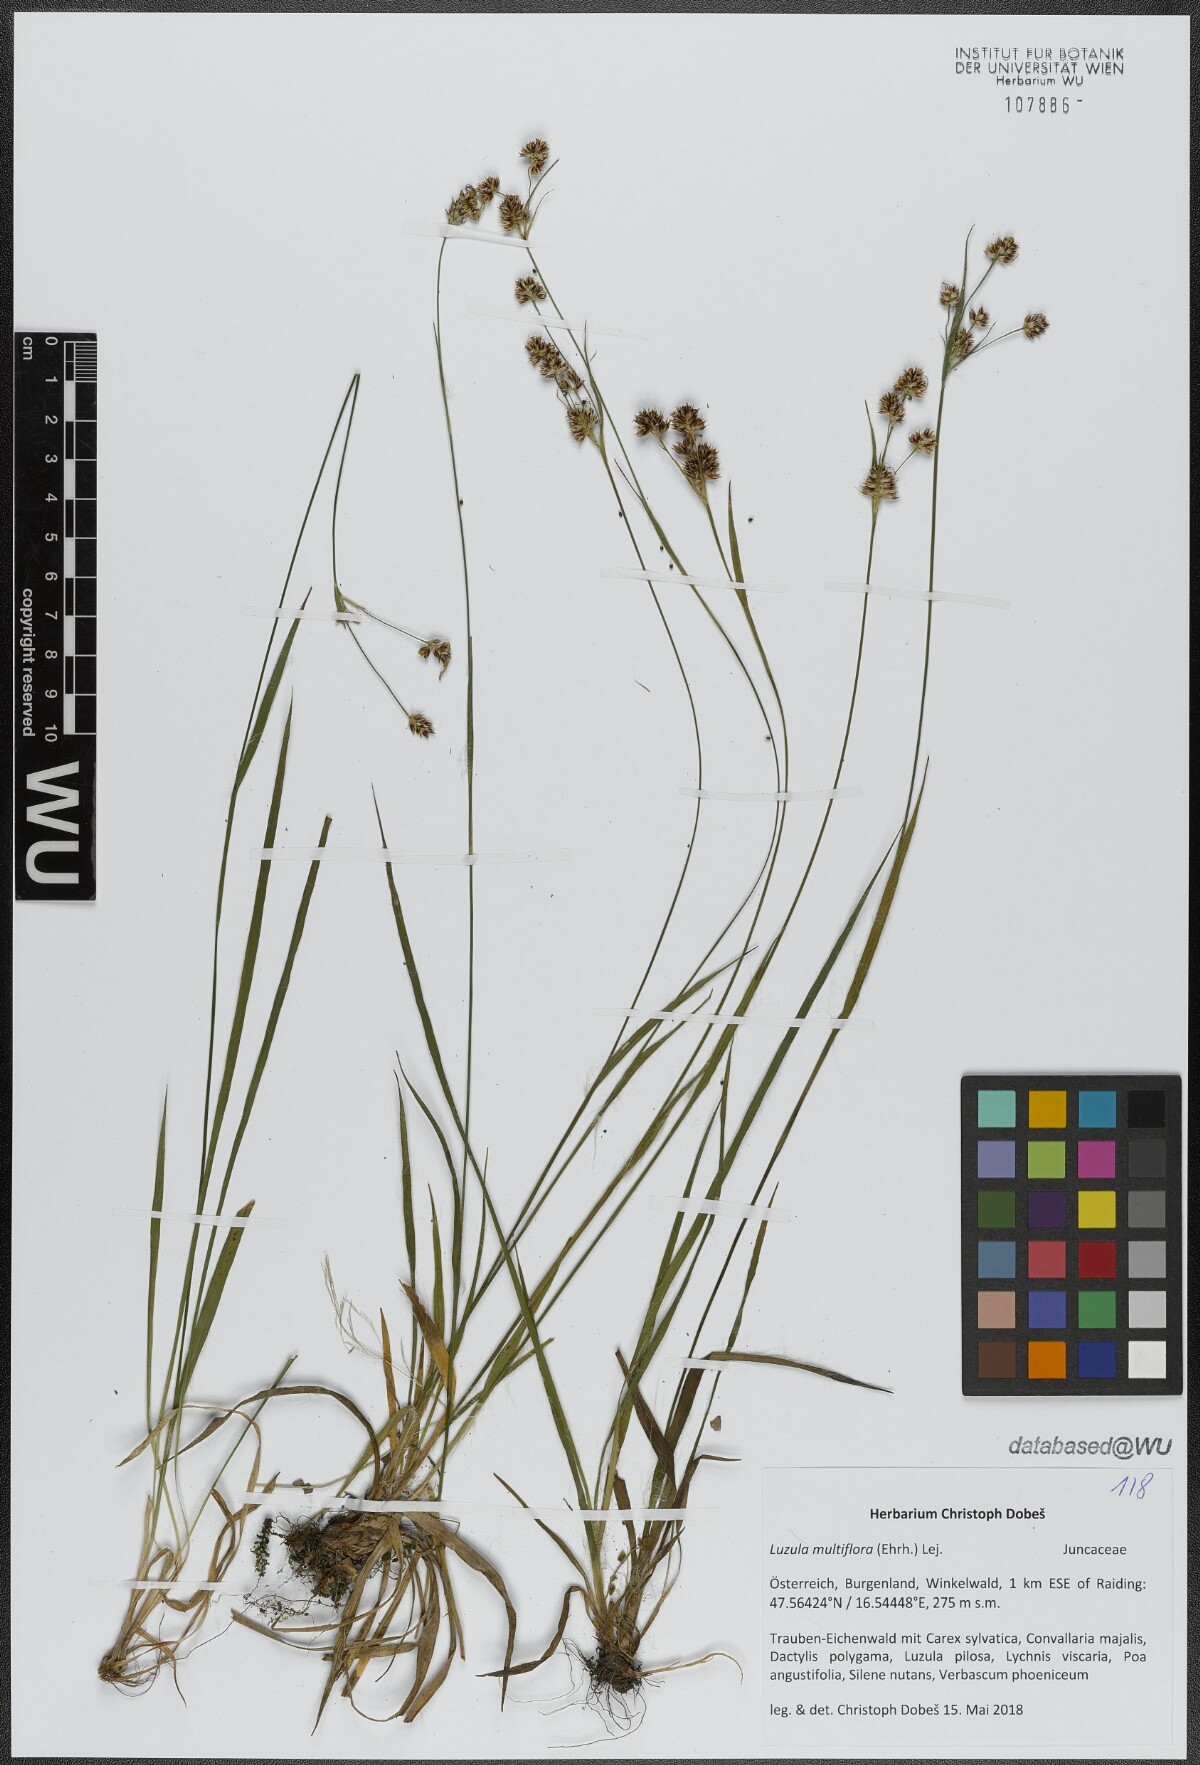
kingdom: Plantae
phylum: Tracheophyta
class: Liliopsida
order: Poales
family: Juncaceae
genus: Luzula
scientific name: Luzula multiflora
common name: Heath wood-rush
